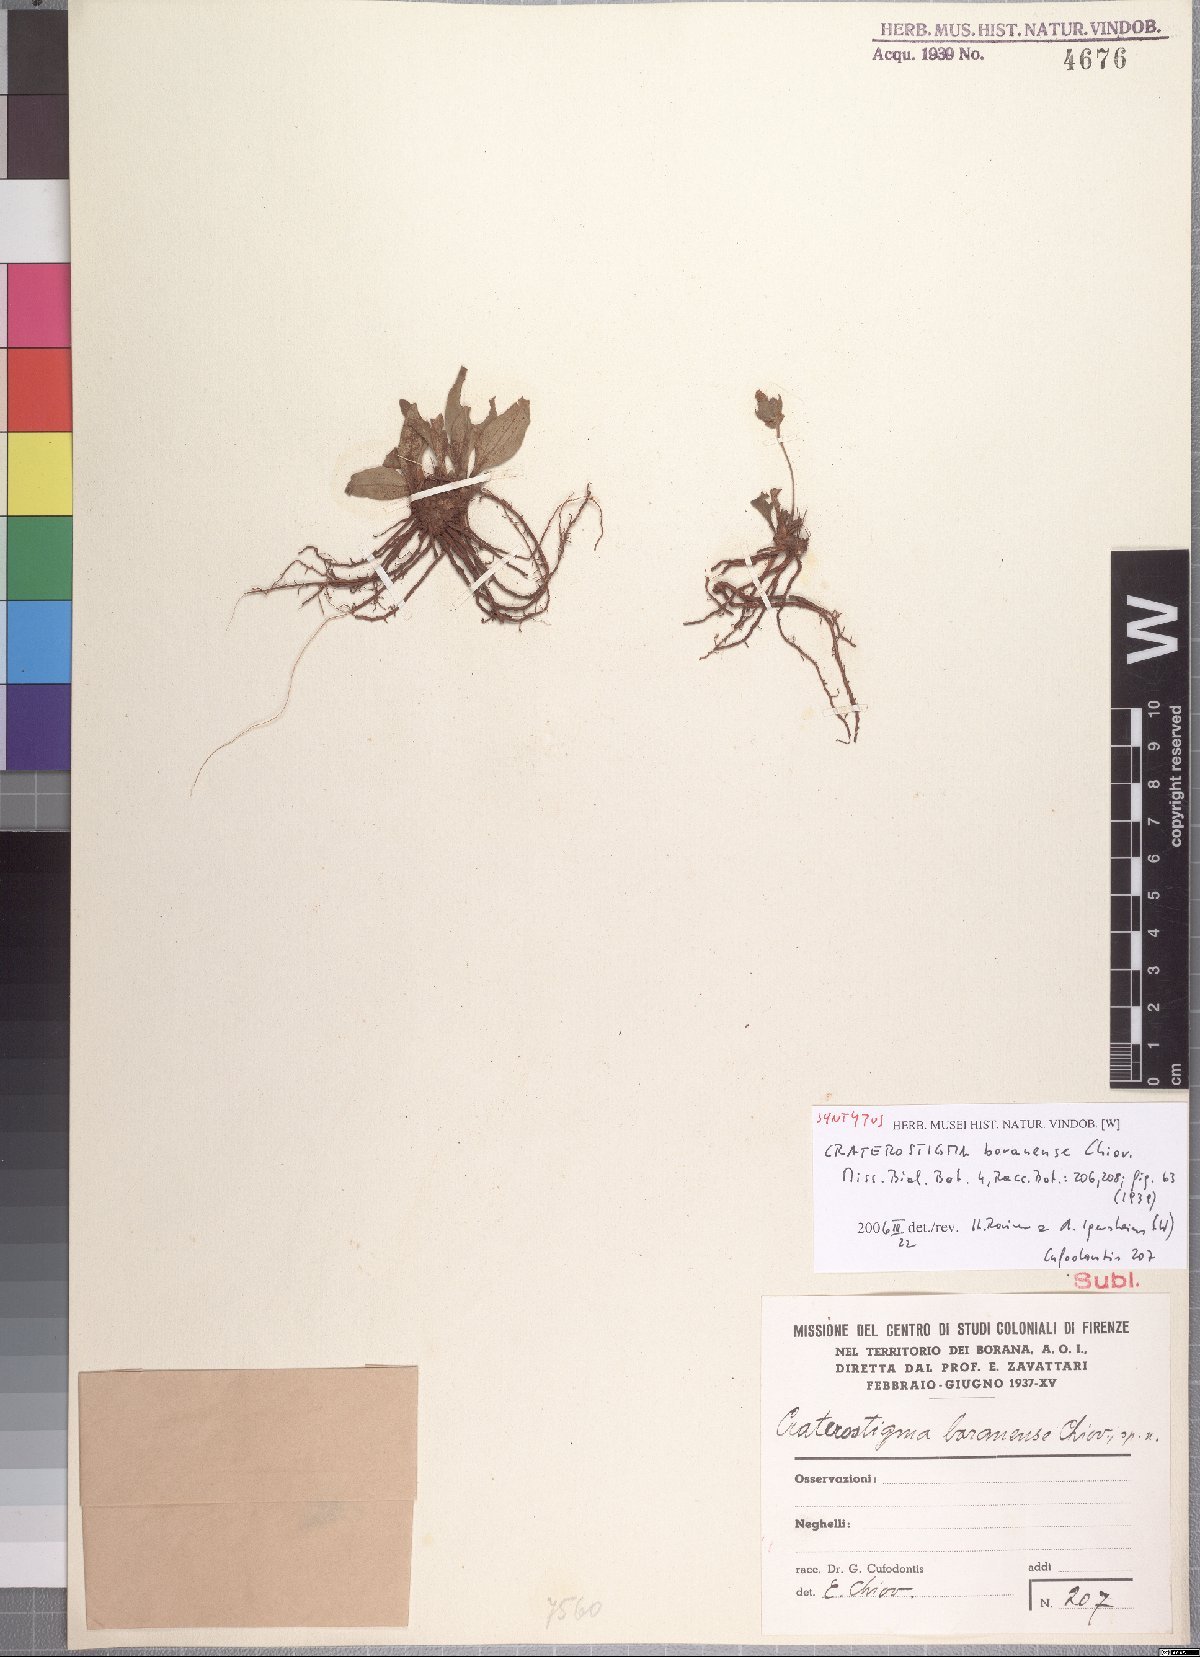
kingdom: Plantae
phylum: Tracheophyta
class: Magnoliopsida
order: Lamiales
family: Linderniaceae
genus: Craterostigma
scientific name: Craterostigma smithii
